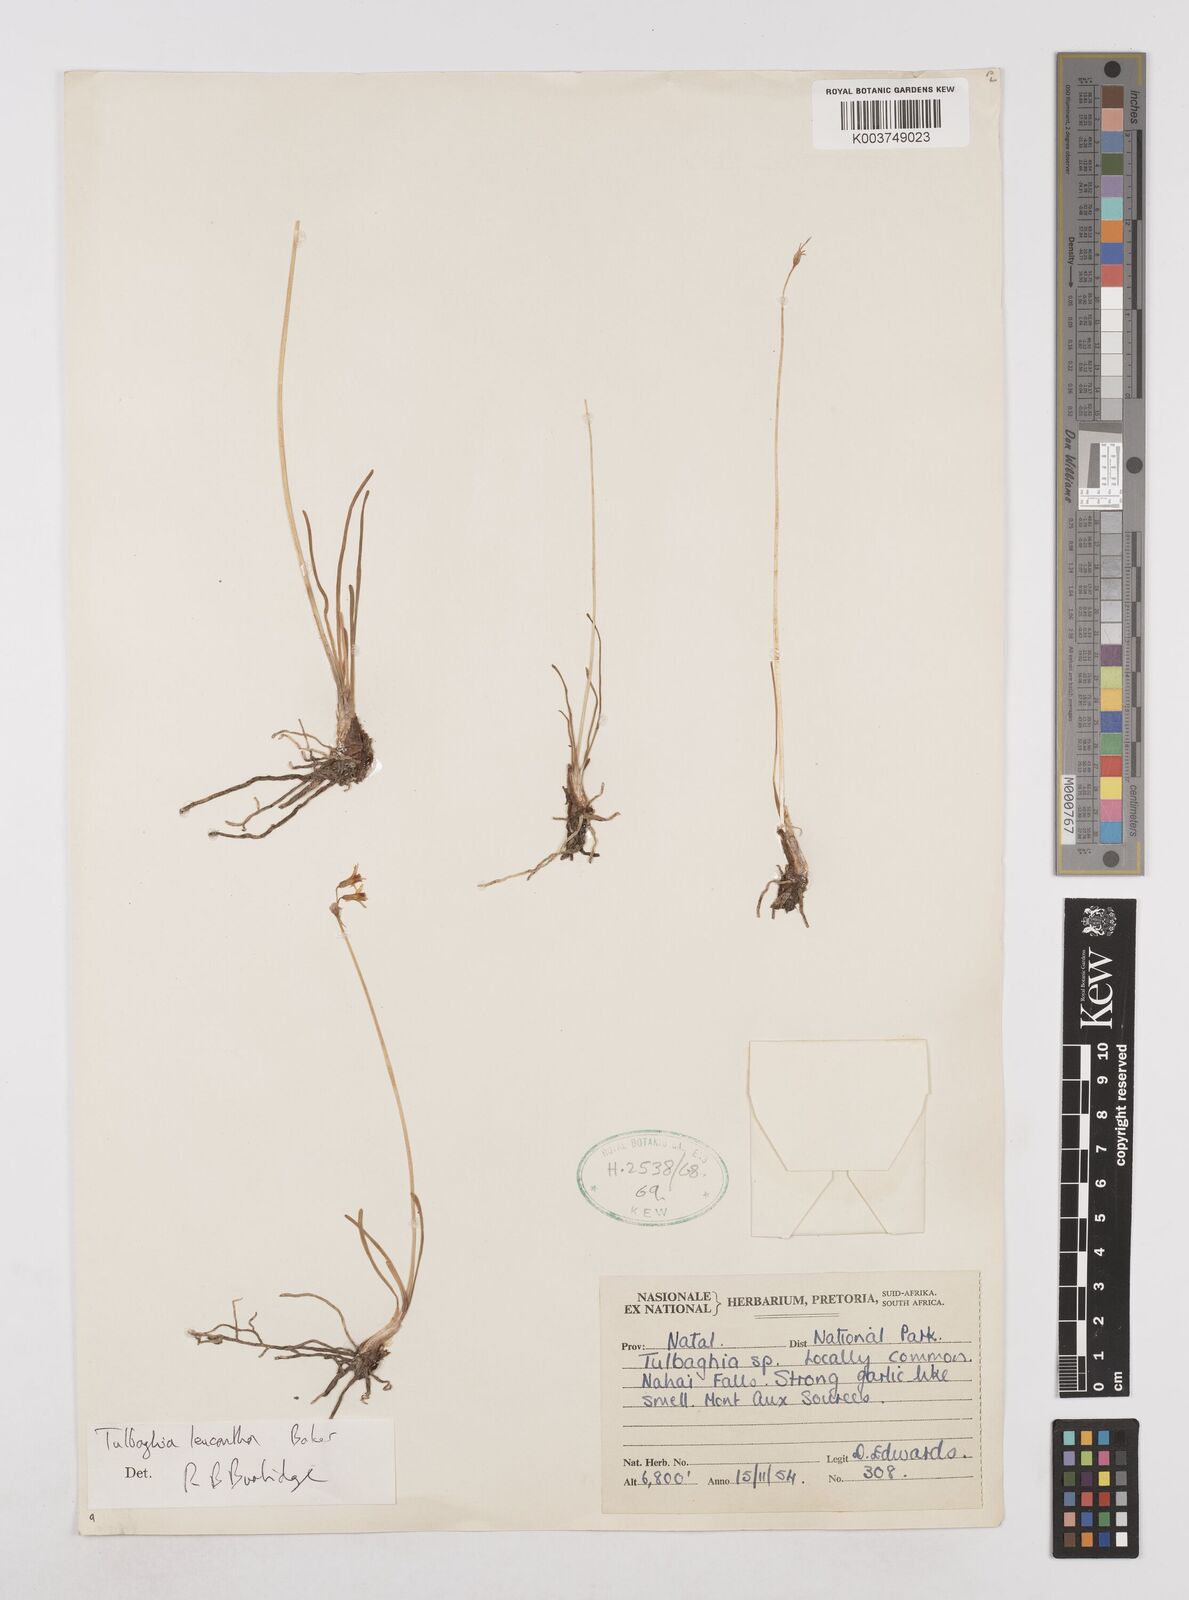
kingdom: Plantae
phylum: Tracheophyta
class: Liliopsida
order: Asparagales
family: Amaryllidaceae
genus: Tulbaghia
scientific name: Tulbaghia leucantha
